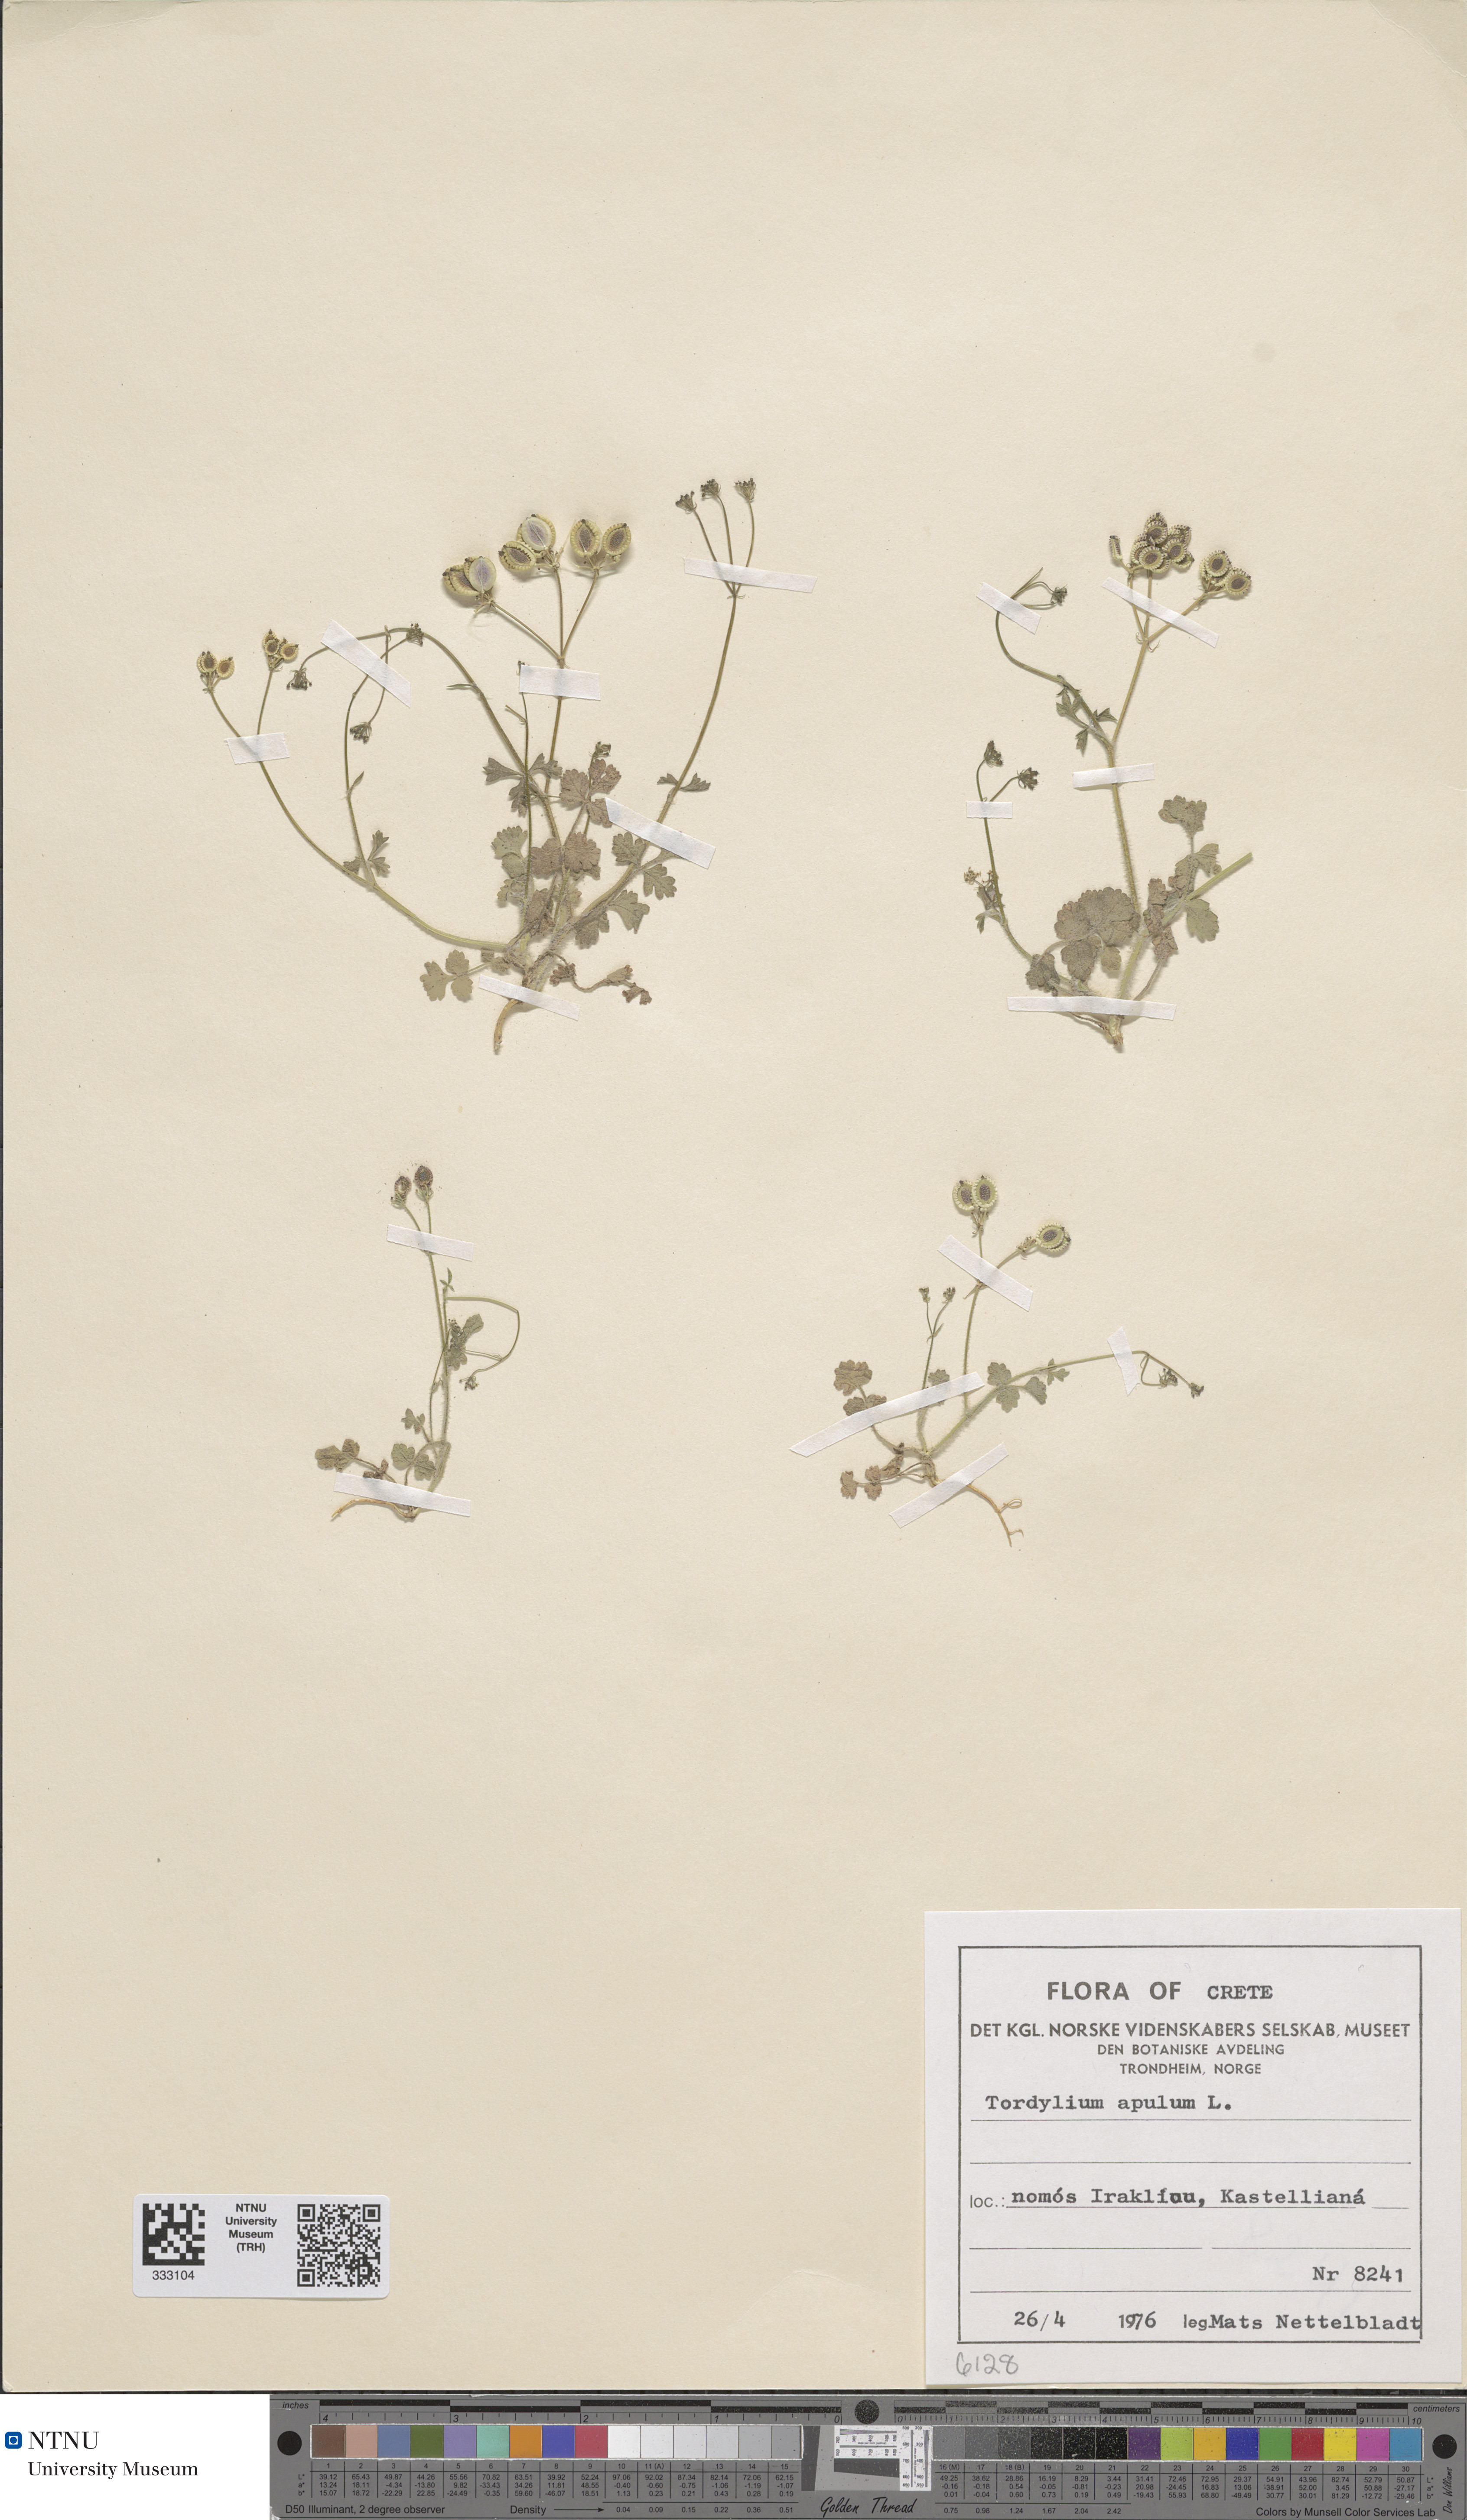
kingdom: Plantae
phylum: Tracheophyta
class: Magnoliopsida
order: Apiales
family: Apiaceae
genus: Tordylium
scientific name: Tordylium apulum
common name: Mediterranean hartwort
